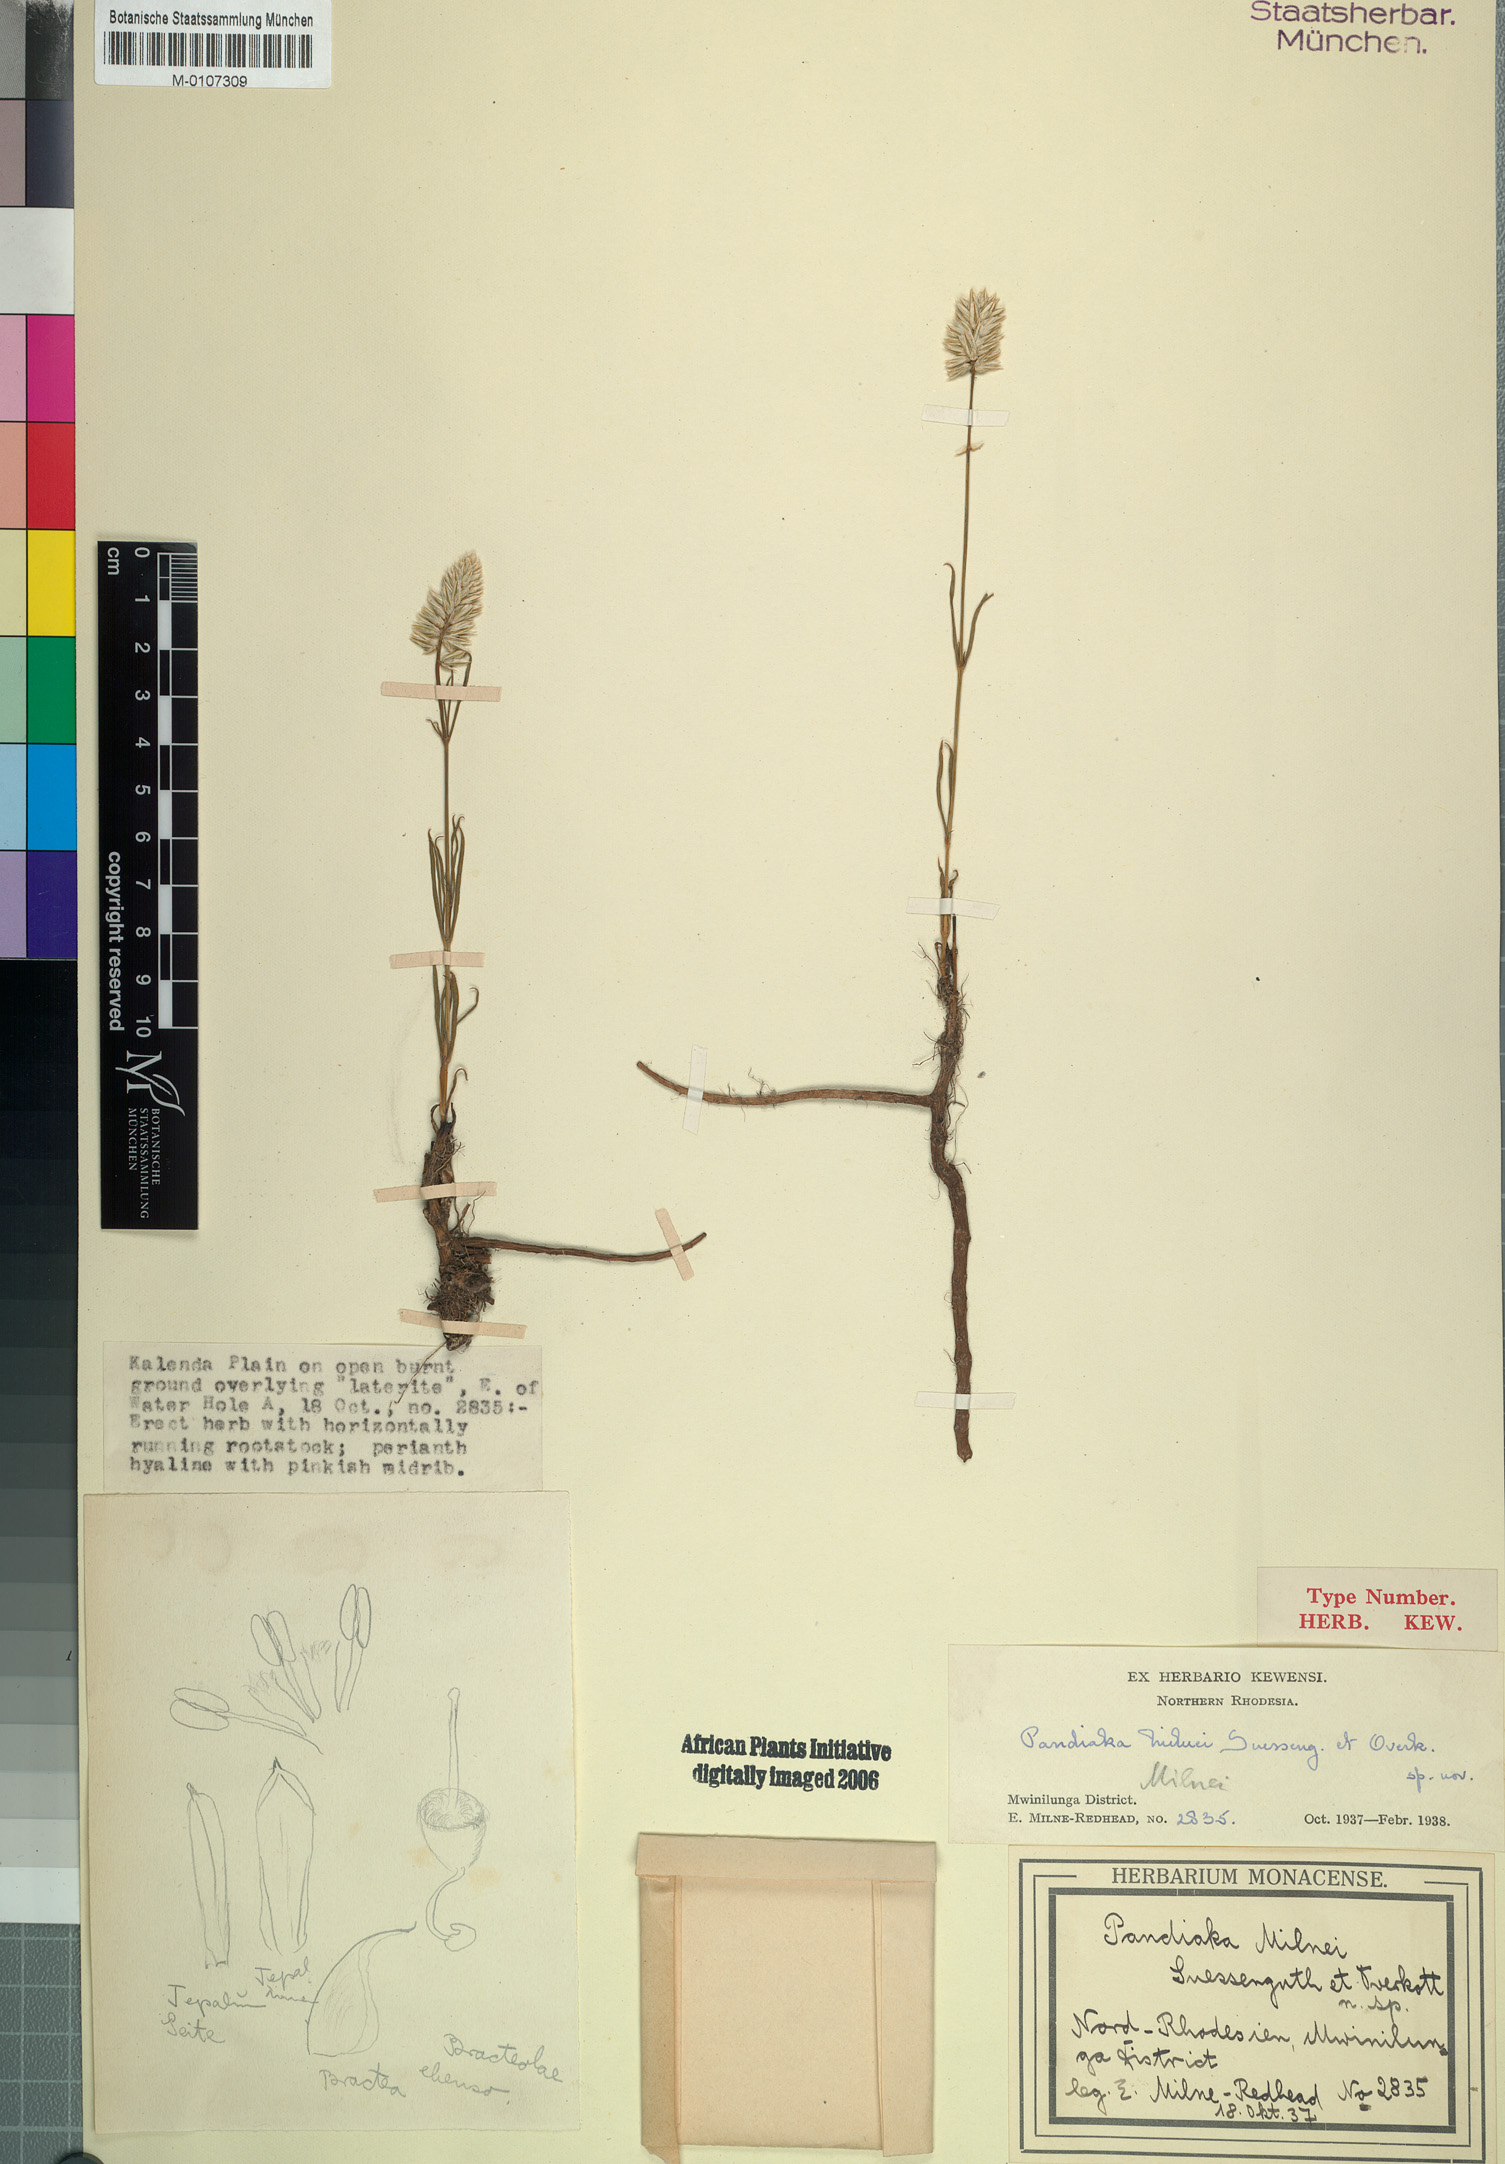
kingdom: Plantae
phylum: Tracheophyta
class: Magnoliopsida
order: Caryophyllales
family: Amaranthaceae
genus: Pandiaka
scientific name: Pandiaka carsonii
